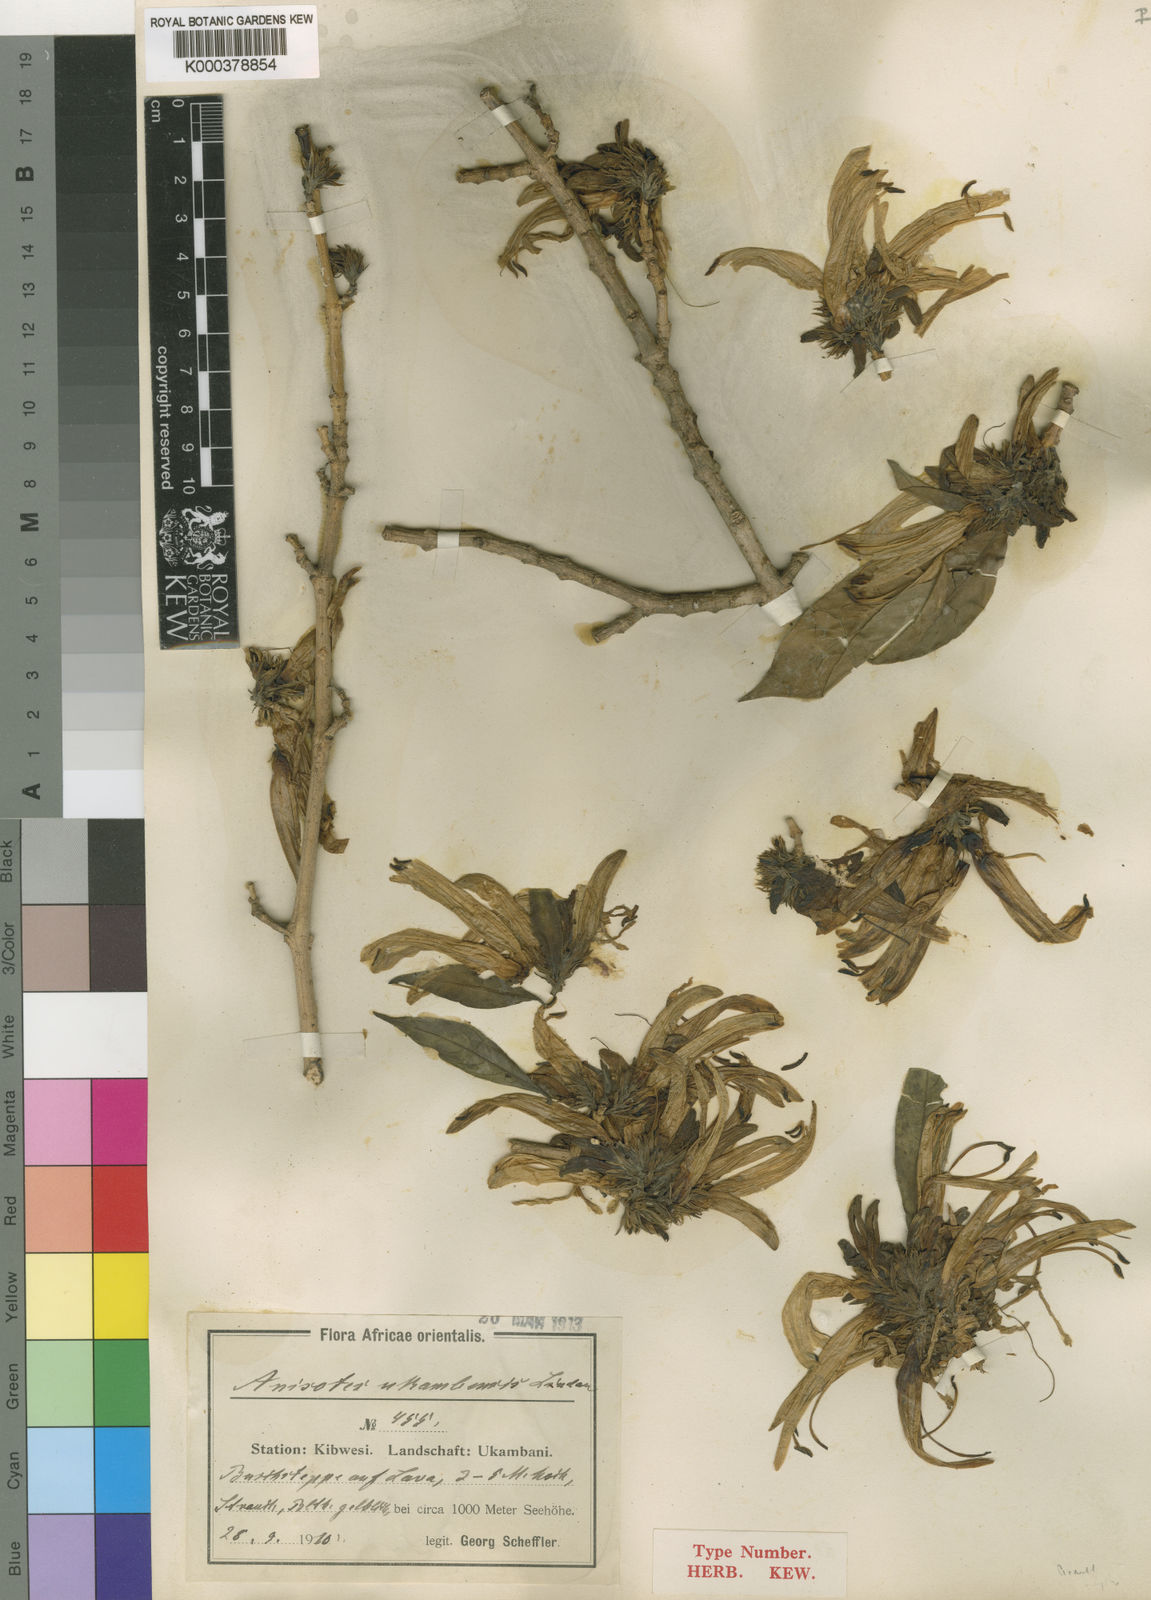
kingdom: Plantae
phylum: Tracheophyta
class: Magnoliopsida
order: Lamiales
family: Acanthaceae
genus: Anisotes
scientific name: Anisotes ukambensis
